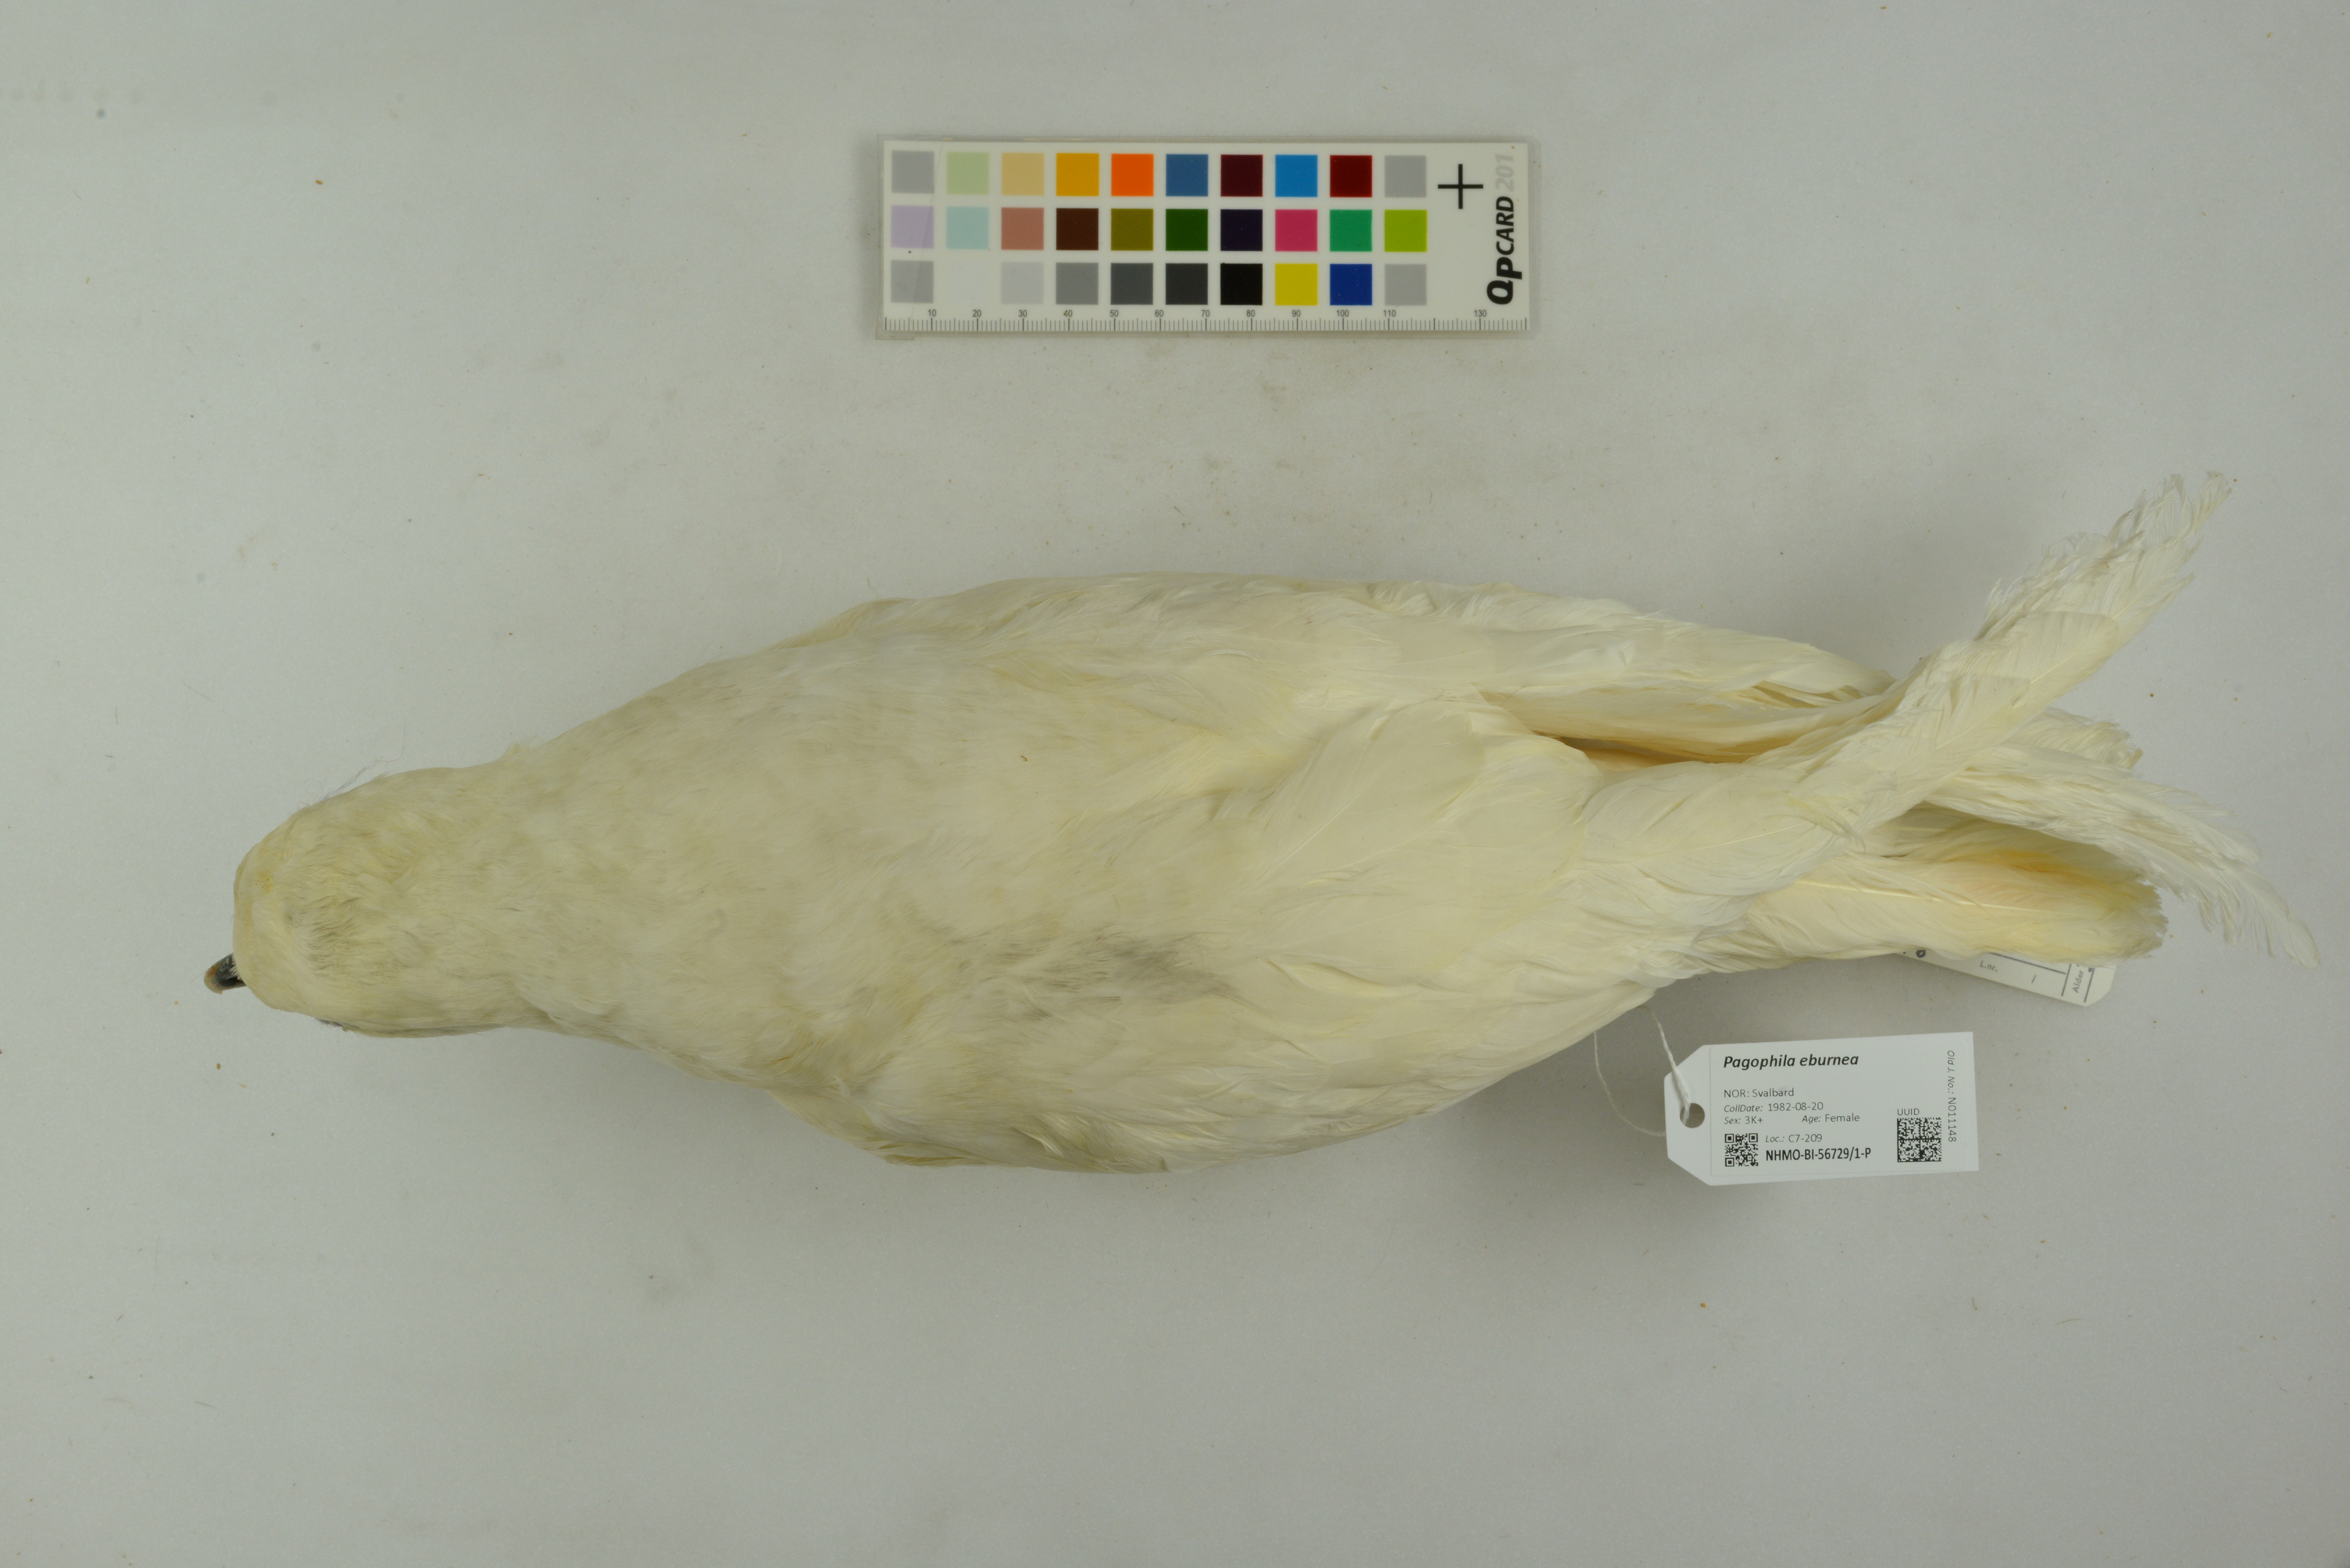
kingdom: Animalia
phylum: Chordata
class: Aves
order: Charadriiformes
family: Laridae
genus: Pagophila
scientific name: Pagophila eburnea
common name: Ivory gull
